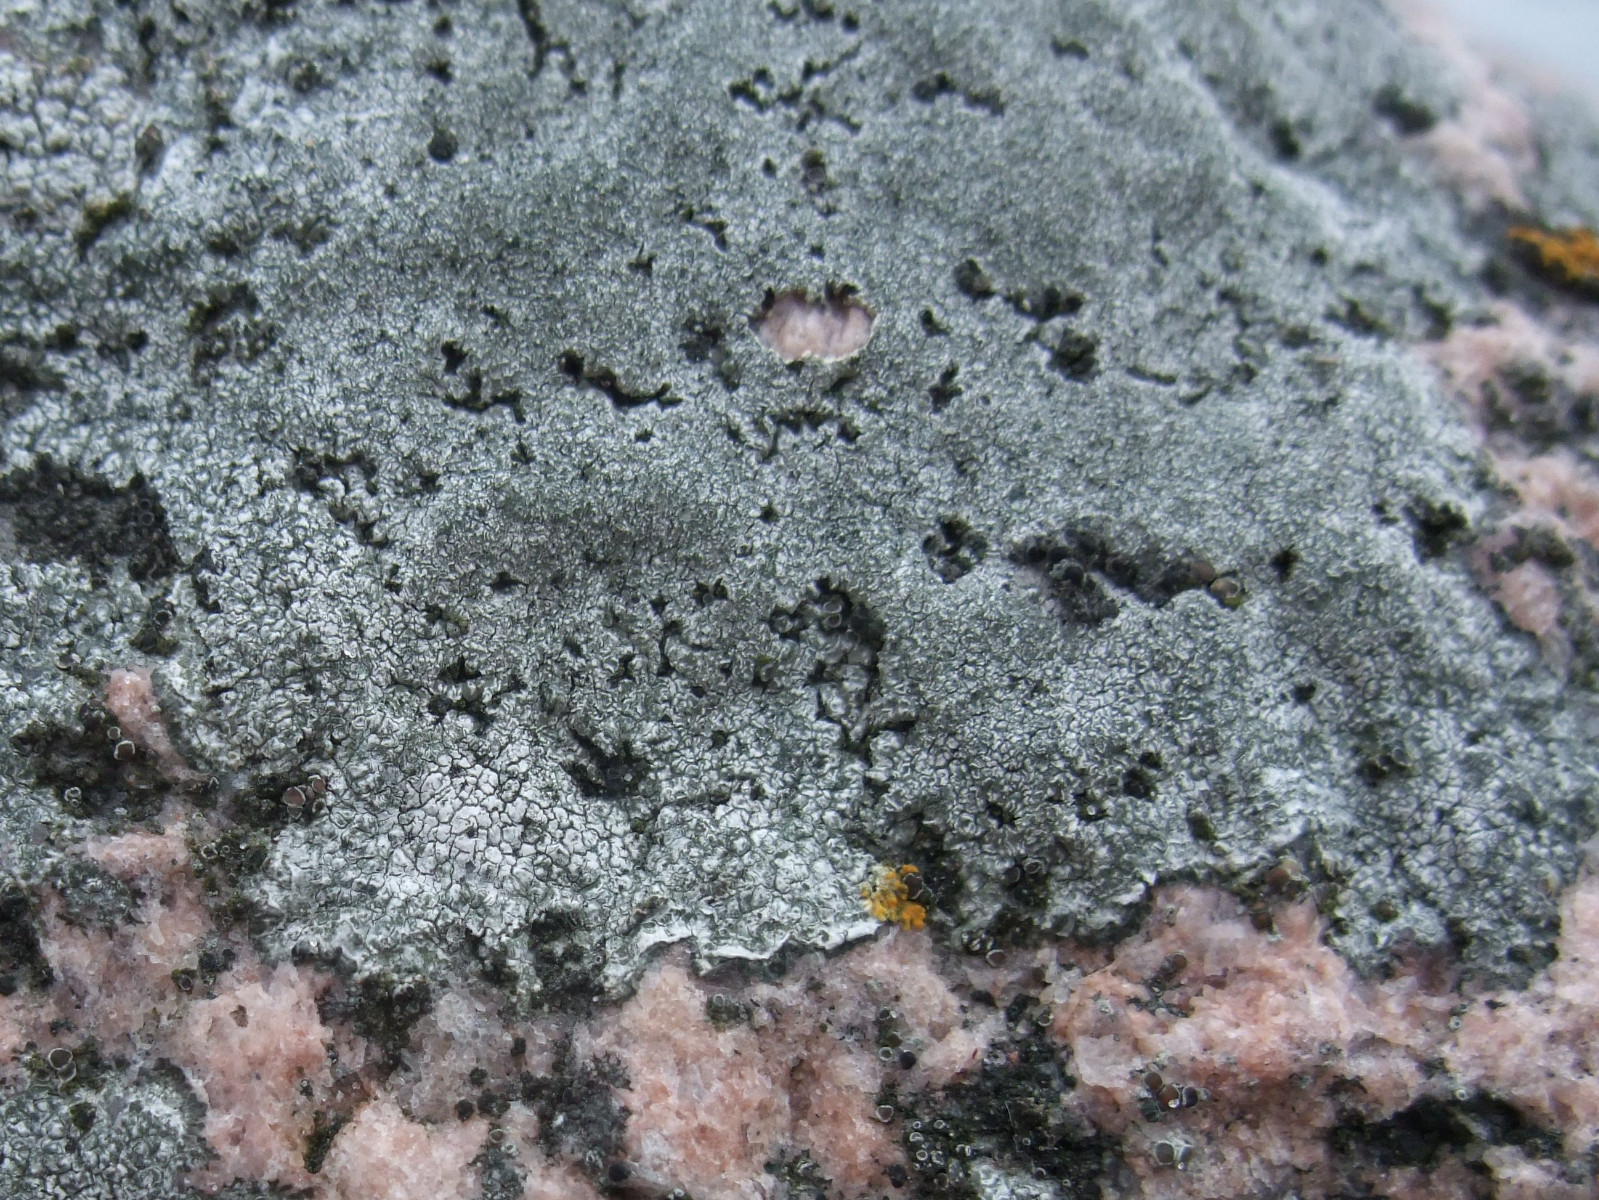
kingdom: Fungi
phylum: Ascomycota
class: Lecanoromycetes
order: Pertusariales
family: Megasporaceae
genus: Circinaria
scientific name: Circinaria leprosescens
